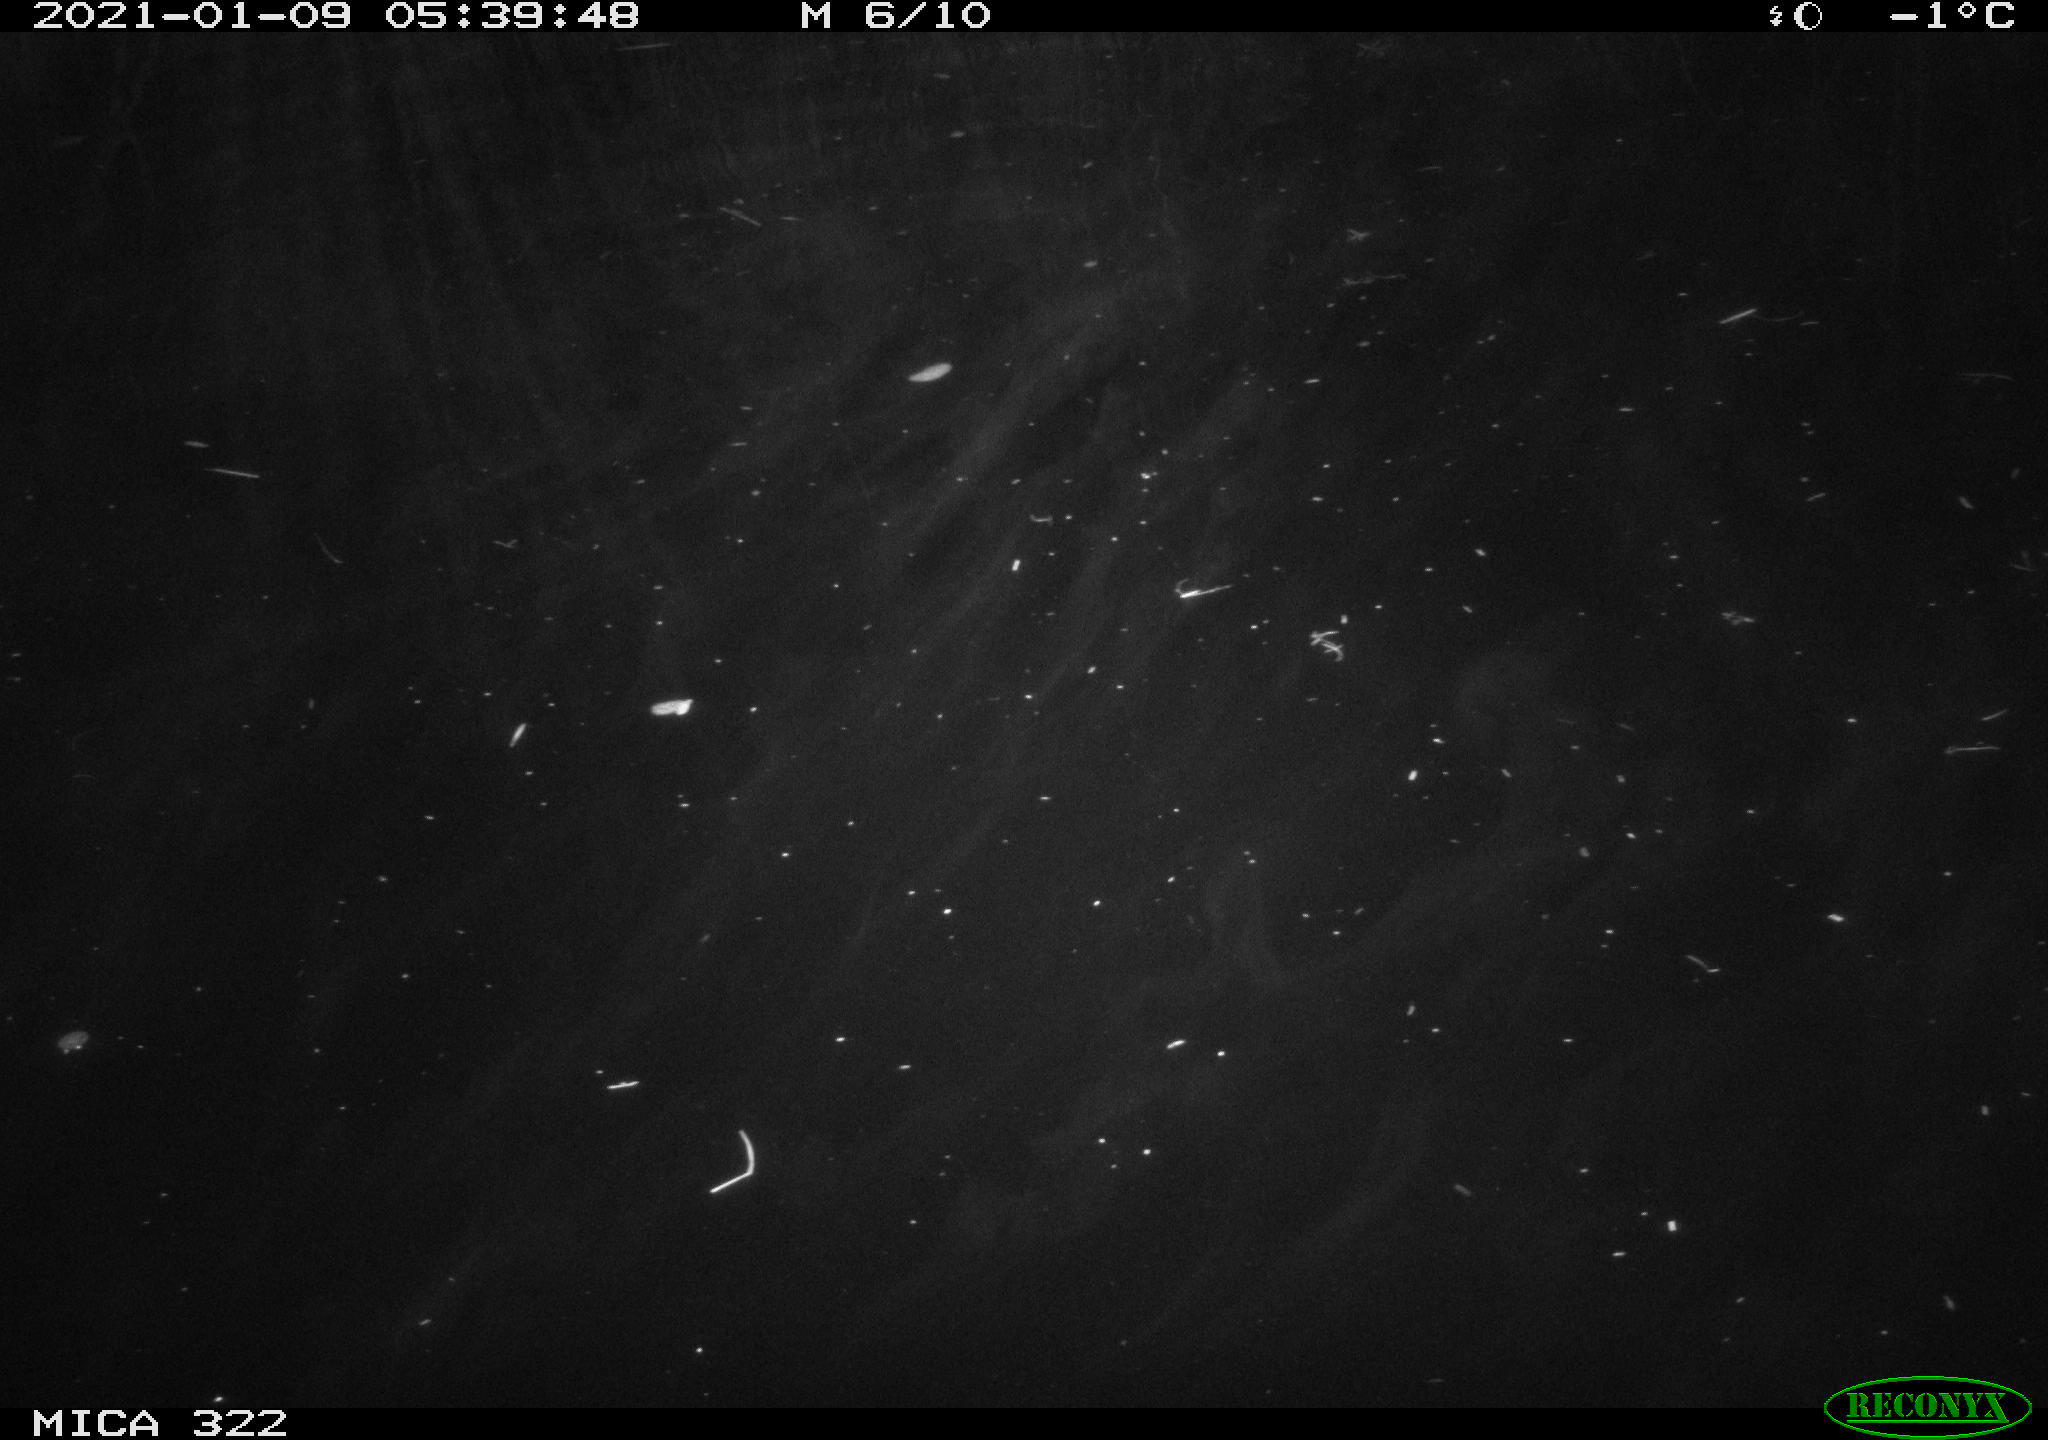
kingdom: Animalia
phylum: Chordata
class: Mammalia
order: Rodentia
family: Muridae
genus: Rattus
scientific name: Rattus norvegicus
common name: Brown rat
